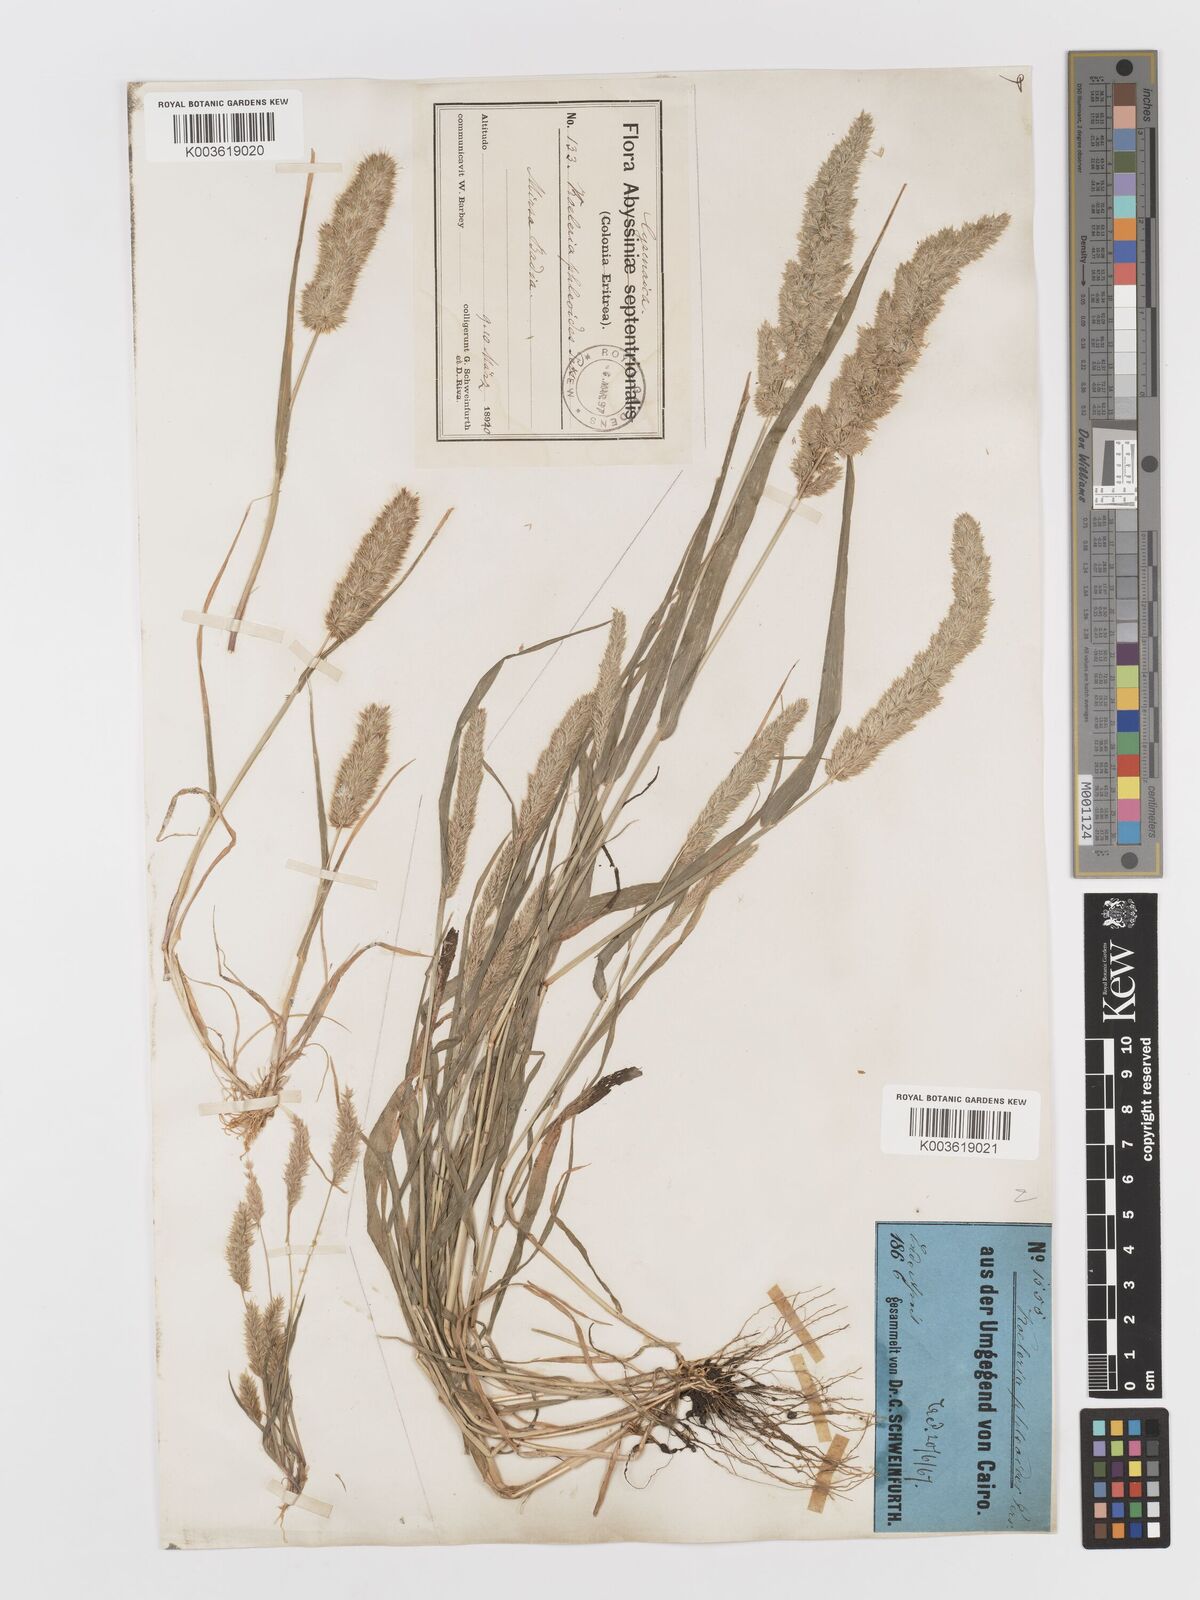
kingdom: Plantae
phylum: Tracheophyta
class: Liliopsida
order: Poales
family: Poaceae
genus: Rostraria
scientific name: Rostraria cristata
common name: Mediterranean hair-grass
